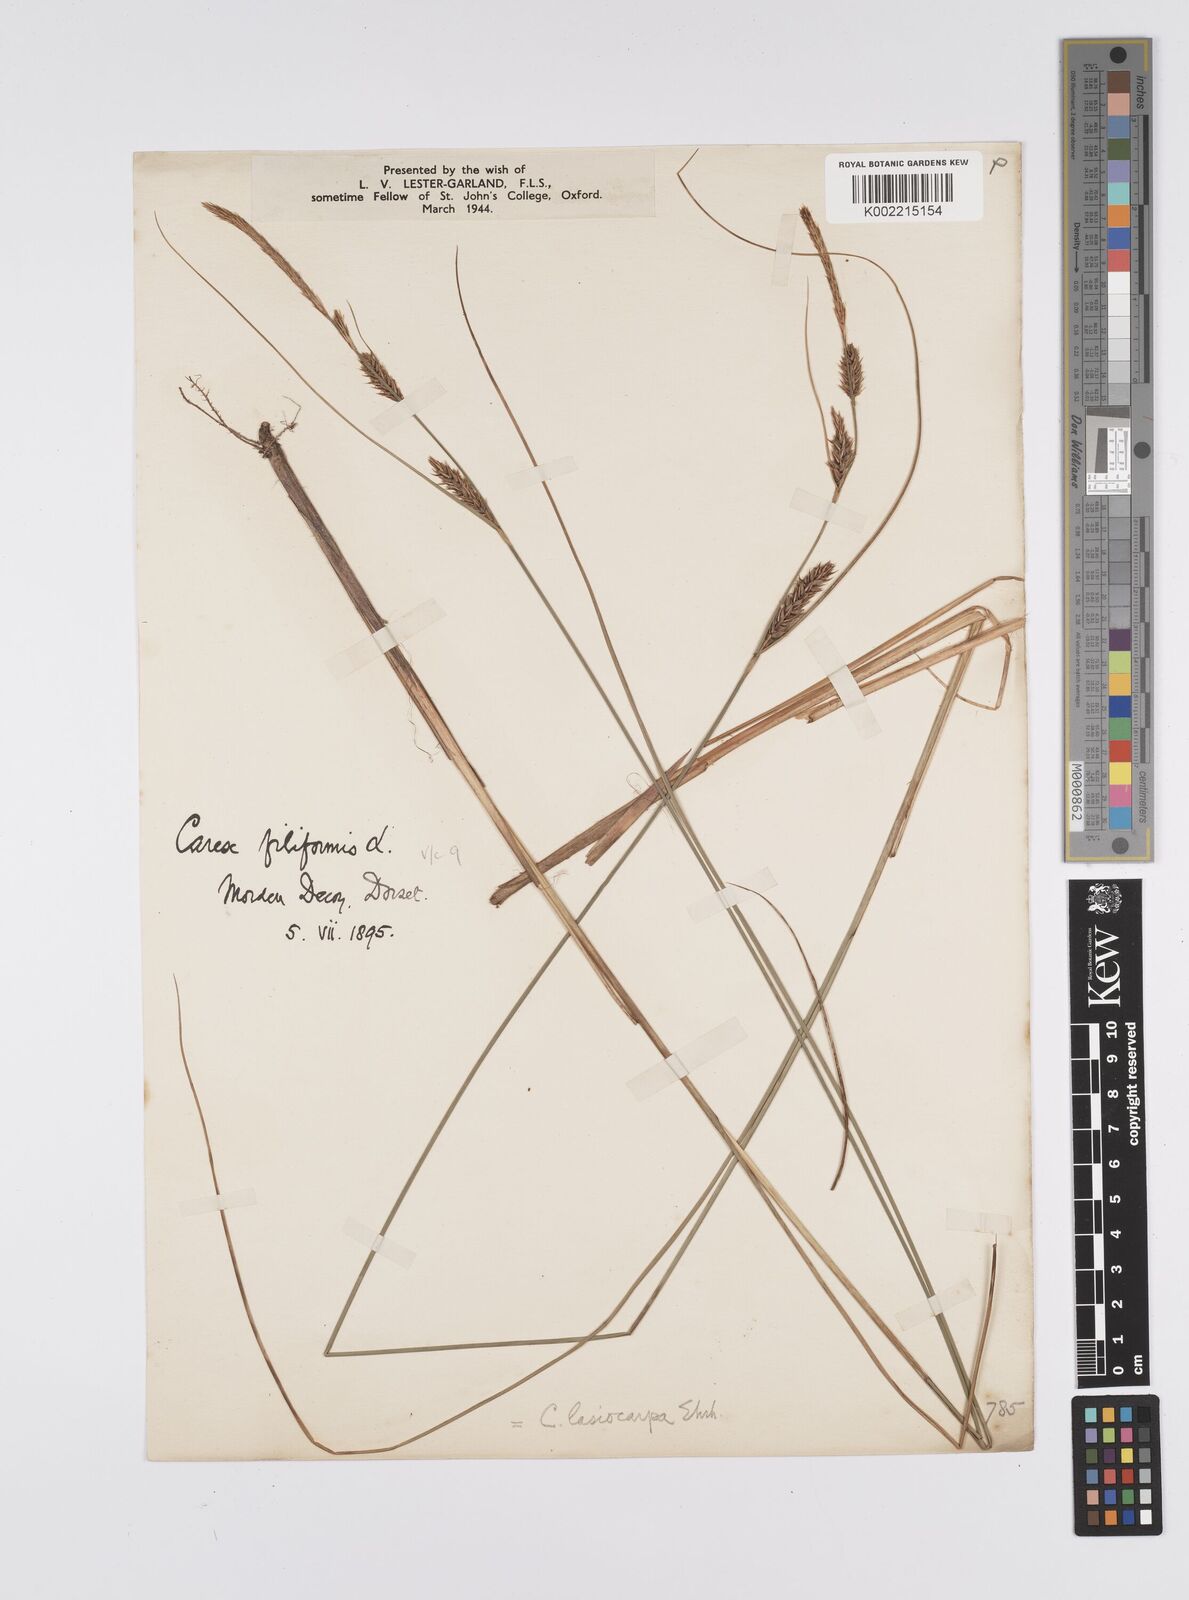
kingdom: Plantae
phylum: Tracheophyta
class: Liliopsida
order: Poales
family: Cyperaceae
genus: Carex
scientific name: Carex lasiocarpa
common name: Slender sedge
